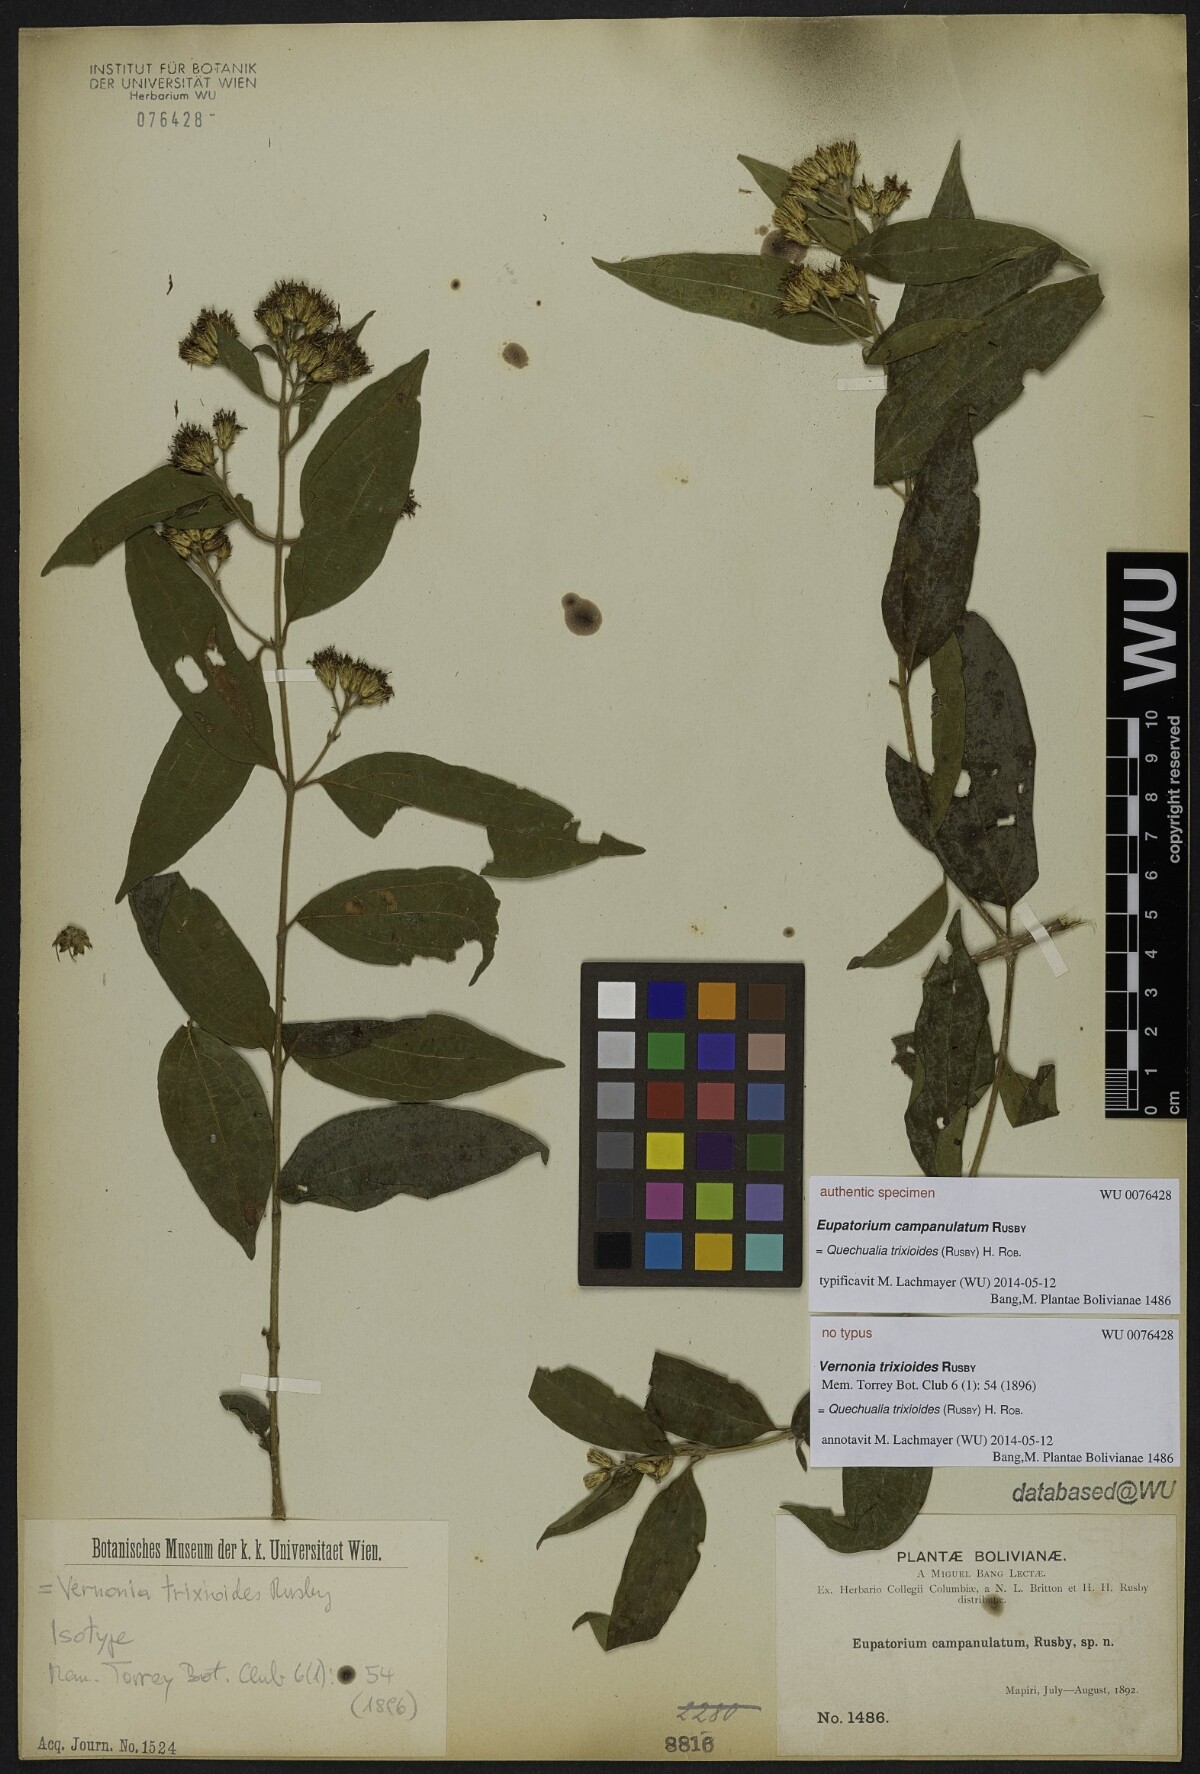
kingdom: Plantae
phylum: Tracheophyta
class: Magnoliopsida
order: Asterales
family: Asteraceae
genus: Eupatorium
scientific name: Eupatorium
